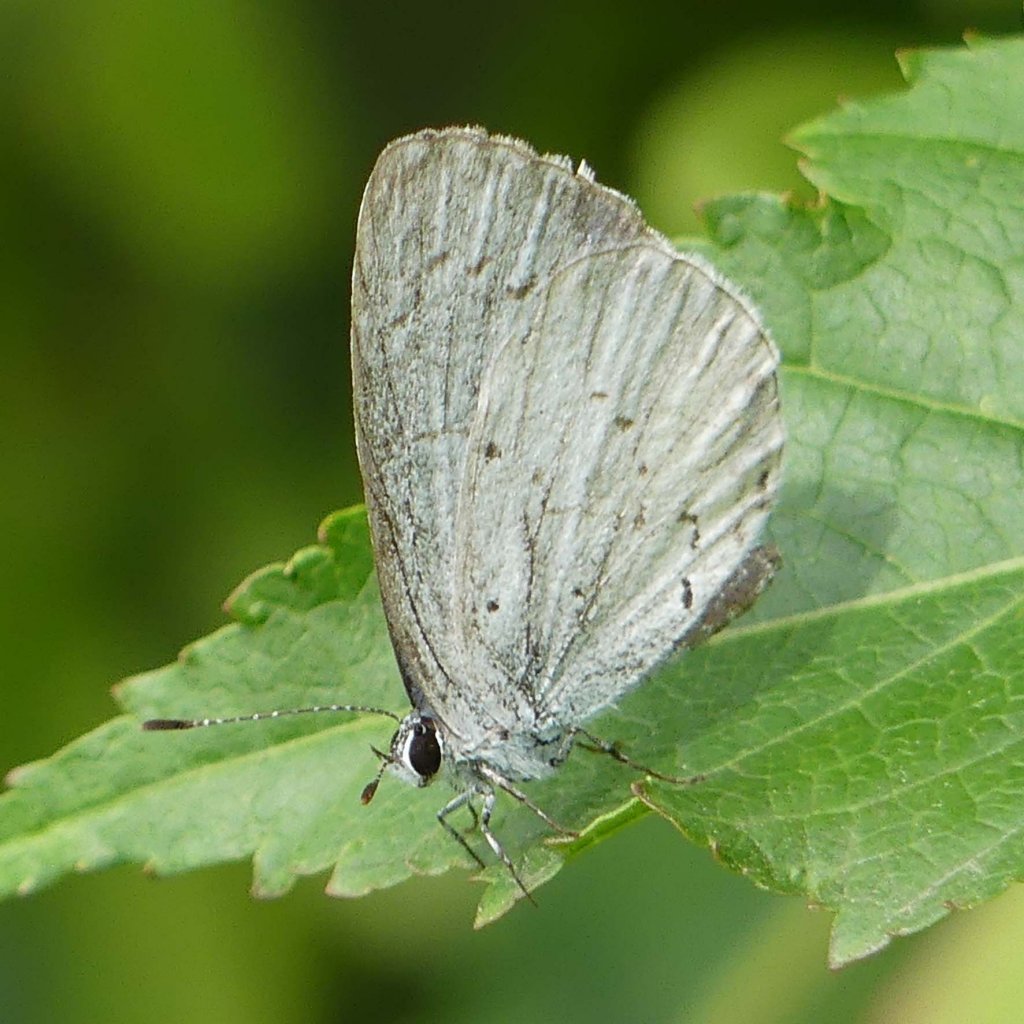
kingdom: Animalia
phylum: Arthropoda
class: Insecta
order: Lepidoptera
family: Lycaenidae
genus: Celastrina
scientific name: Celastrina
